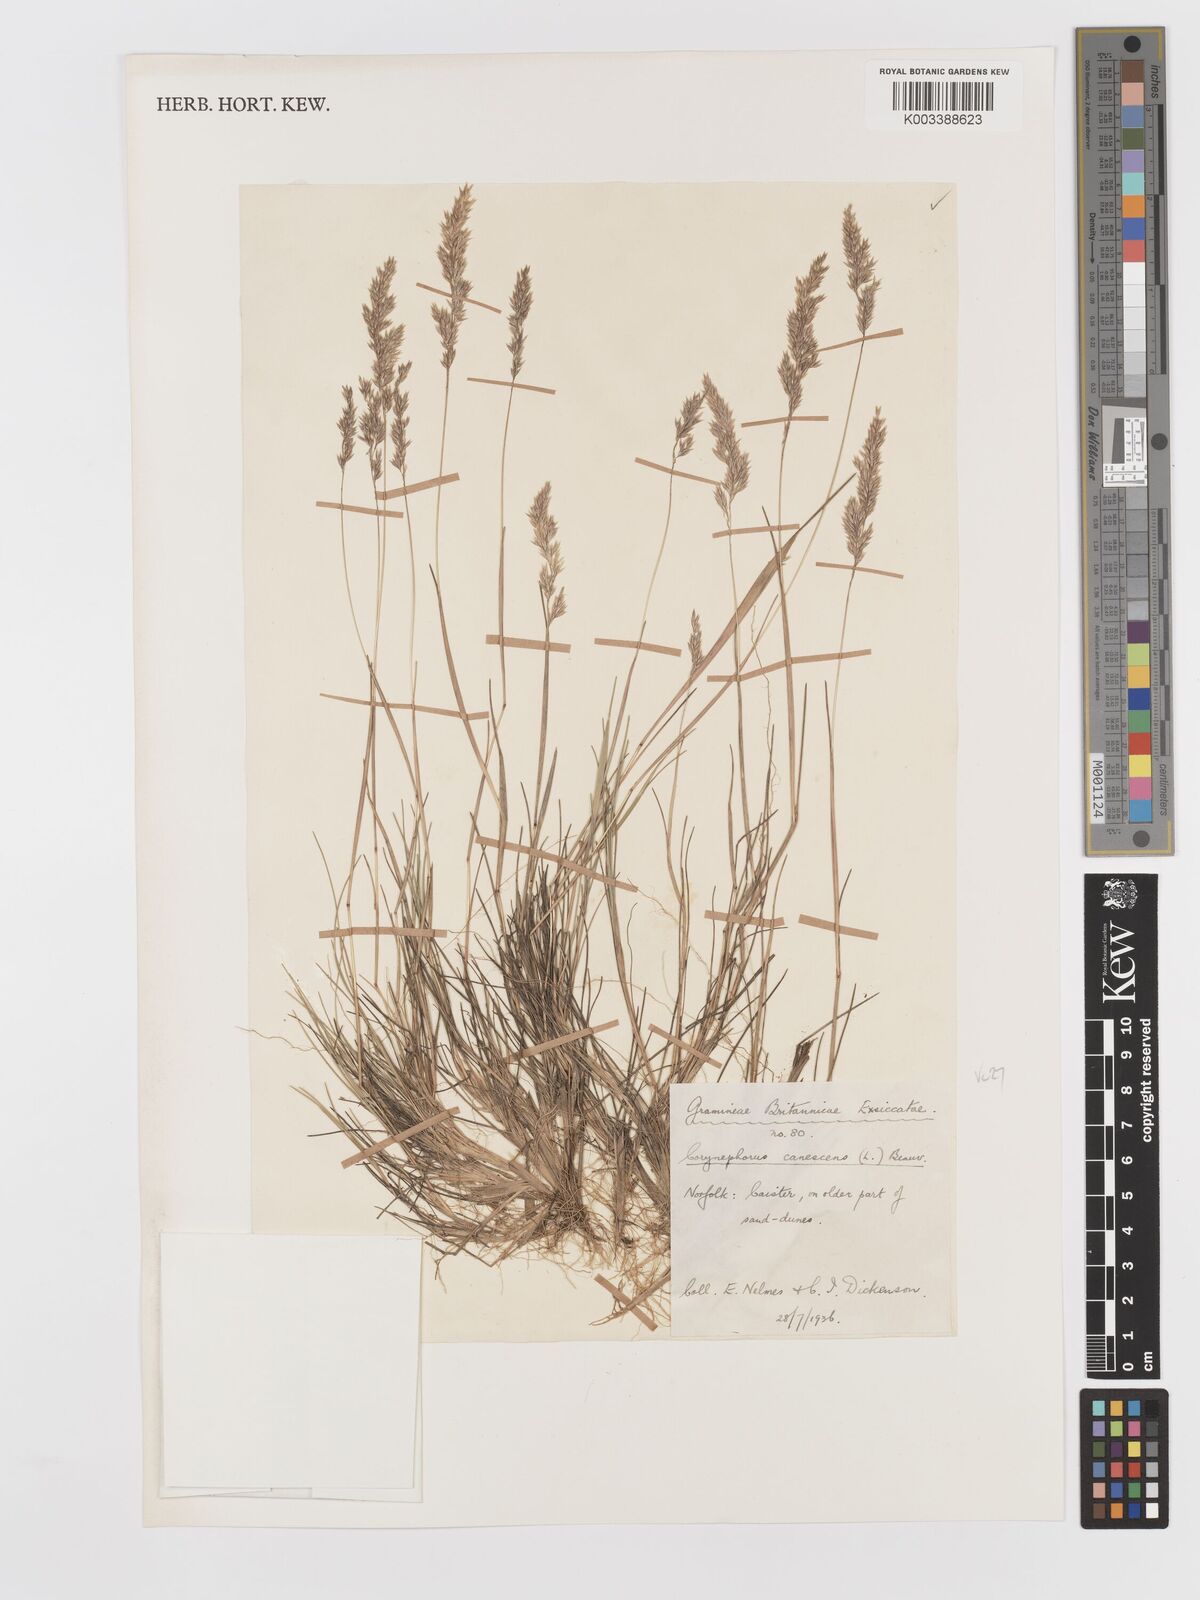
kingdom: Plantae
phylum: Tracheophyta
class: Liliopsida
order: Poales
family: Poaceae
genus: Corynephorus
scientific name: Corynephorus canescens
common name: Grey hair-grass
